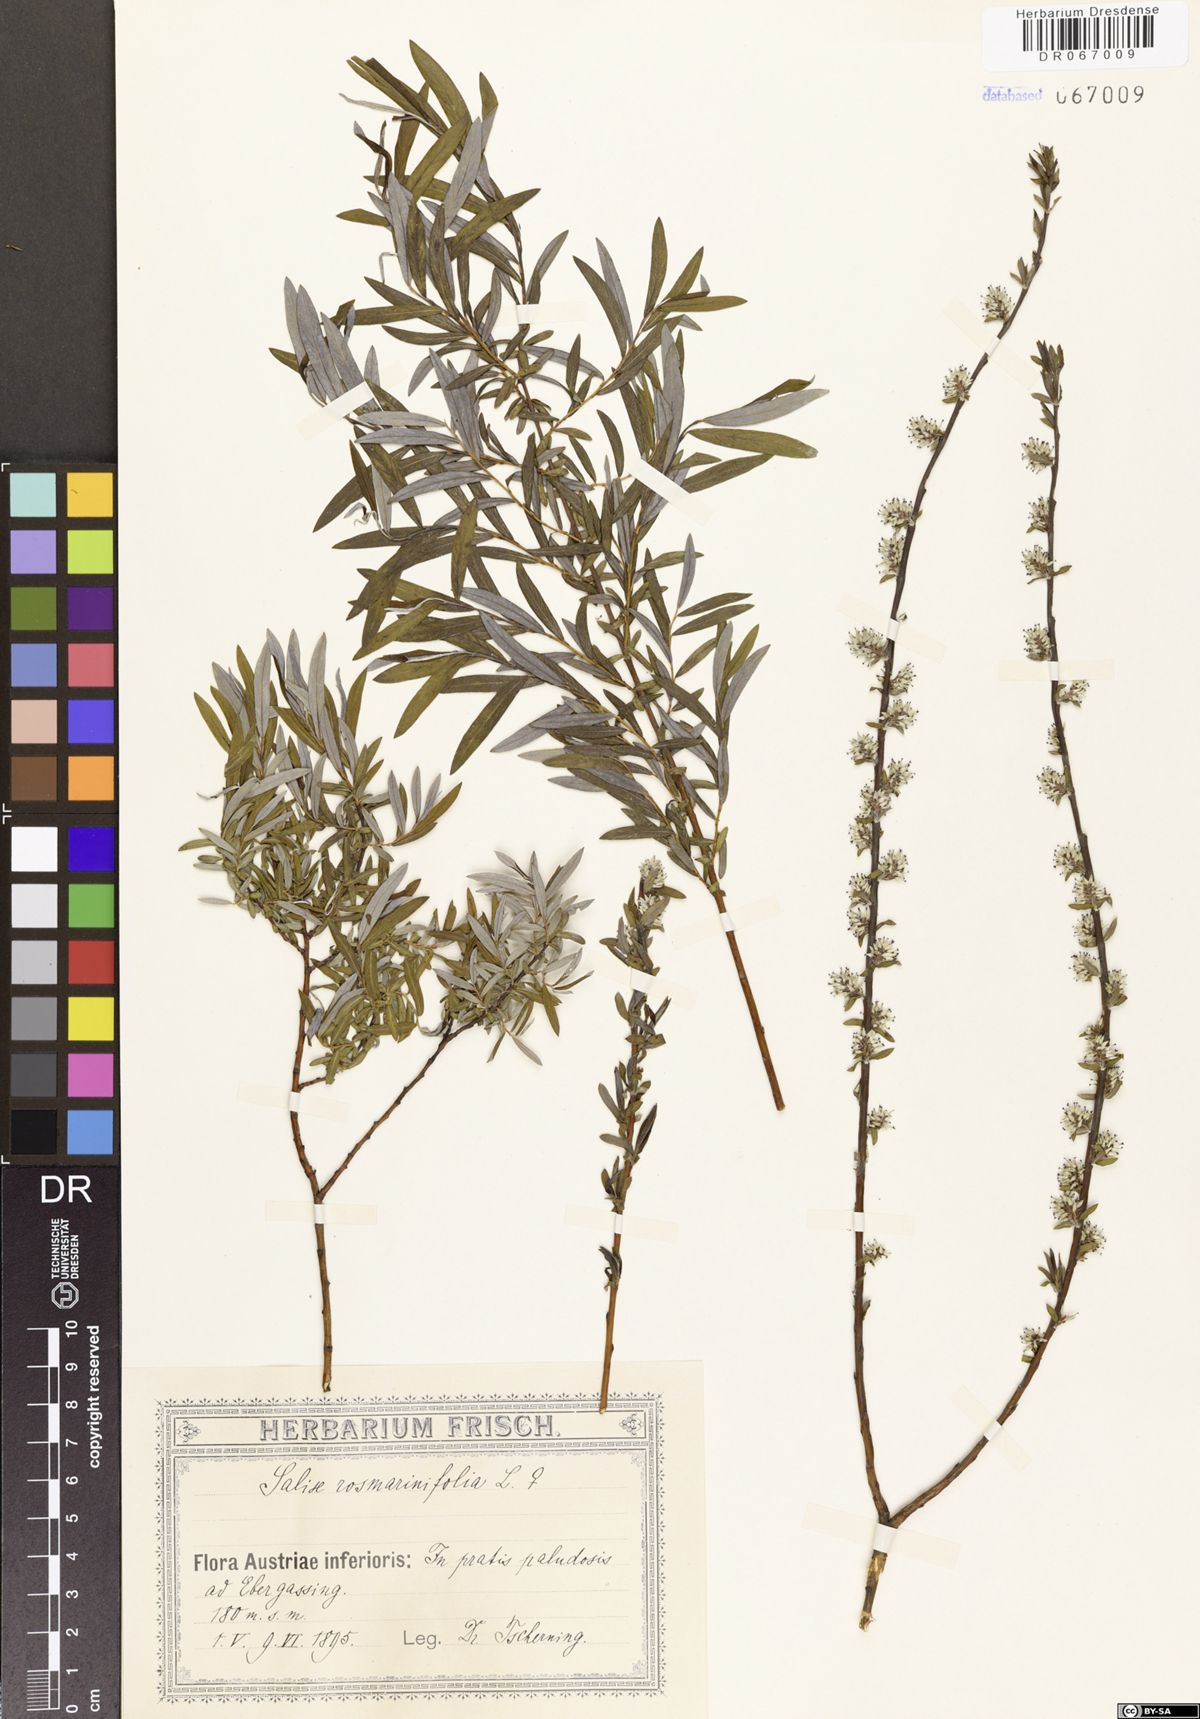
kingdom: Plantae
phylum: Tracheophyta
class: Magnoliopsida
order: Malpighiales
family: Salicaceae
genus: Salix
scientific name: Salix rosmarinifolia
